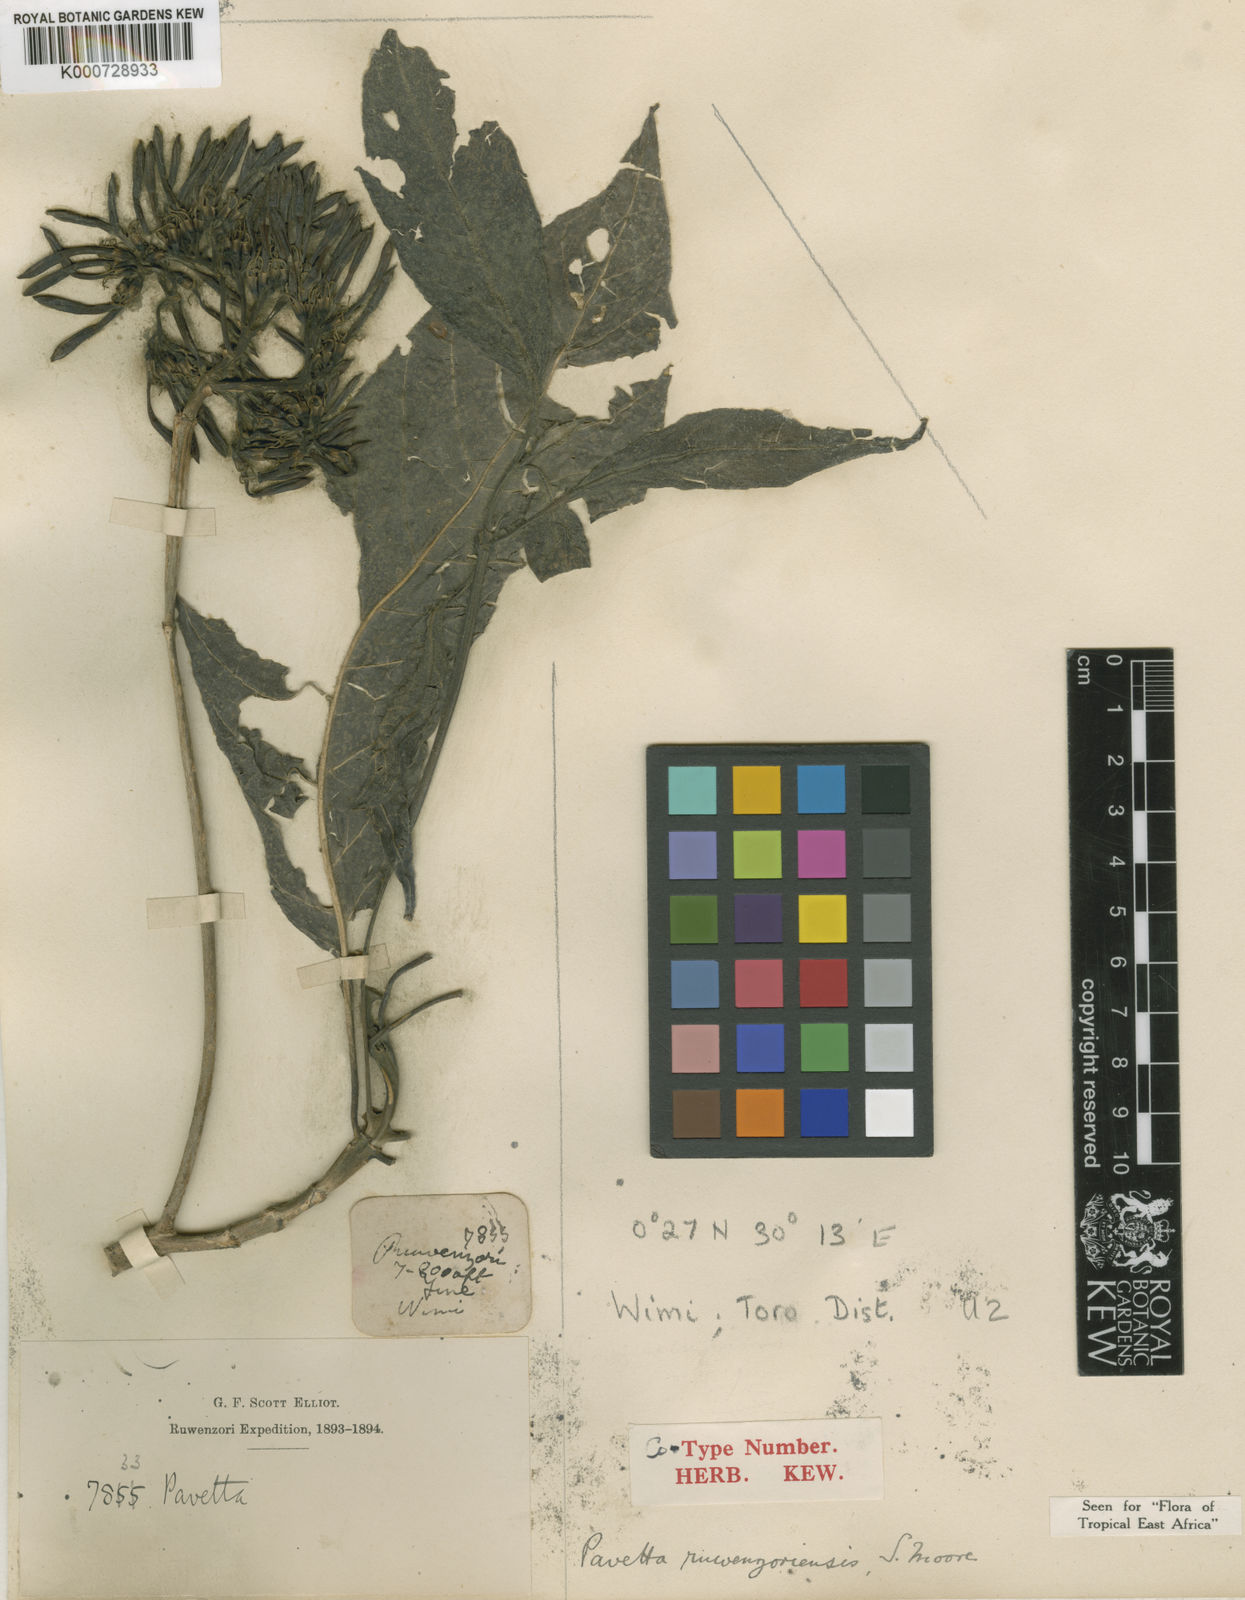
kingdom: Plantae
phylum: Tracheophyta
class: Magnoliopsida
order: Gentianales
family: Rubiaceae
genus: Pavetta
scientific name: Pavetta ruwenzoriensis
